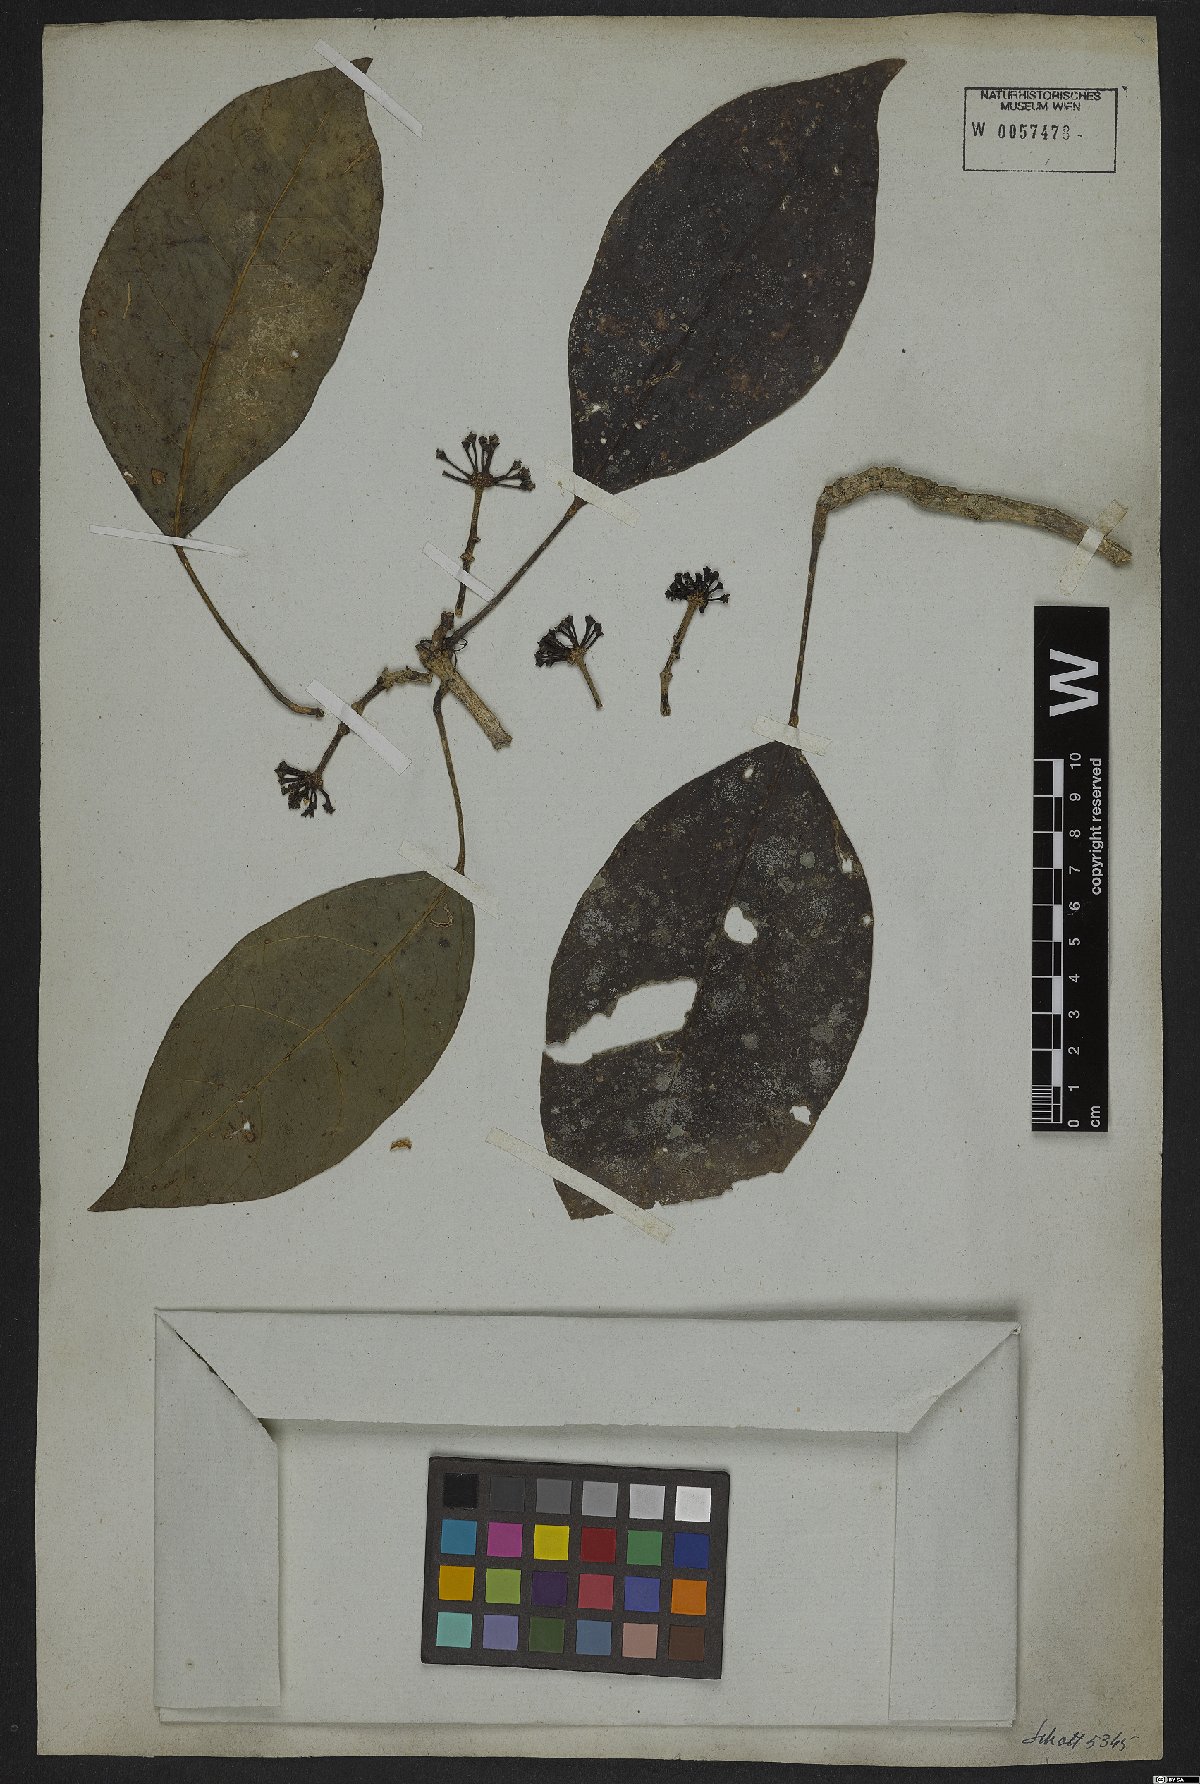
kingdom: Plantae
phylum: Tracheophyta
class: Magnoliopsida
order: Apiales
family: Araliaceae
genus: Dendropanax
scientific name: Dendropanax trilobus
